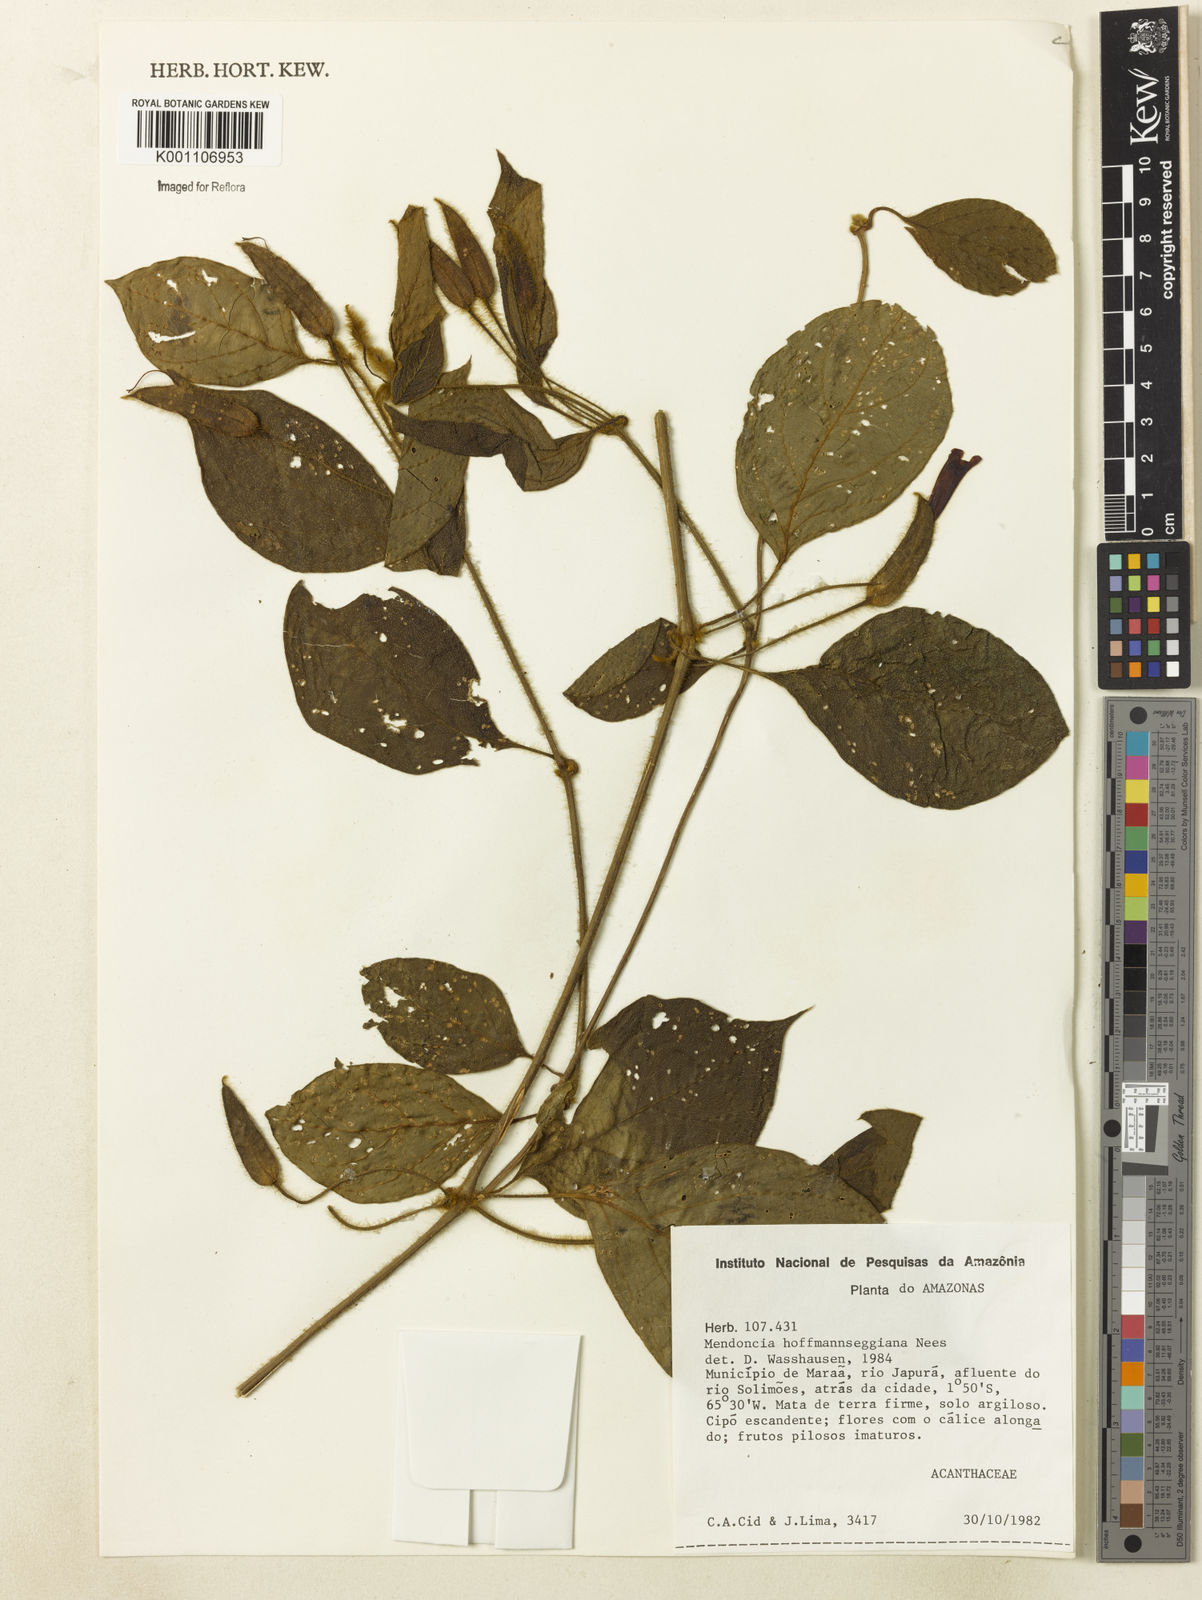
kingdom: Plantae
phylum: Tracheophyta
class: Magnoliopsida
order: Lamiales
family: Acanthaceae
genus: Mendoncia
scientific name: Mendoncia hoffmannseggiana
